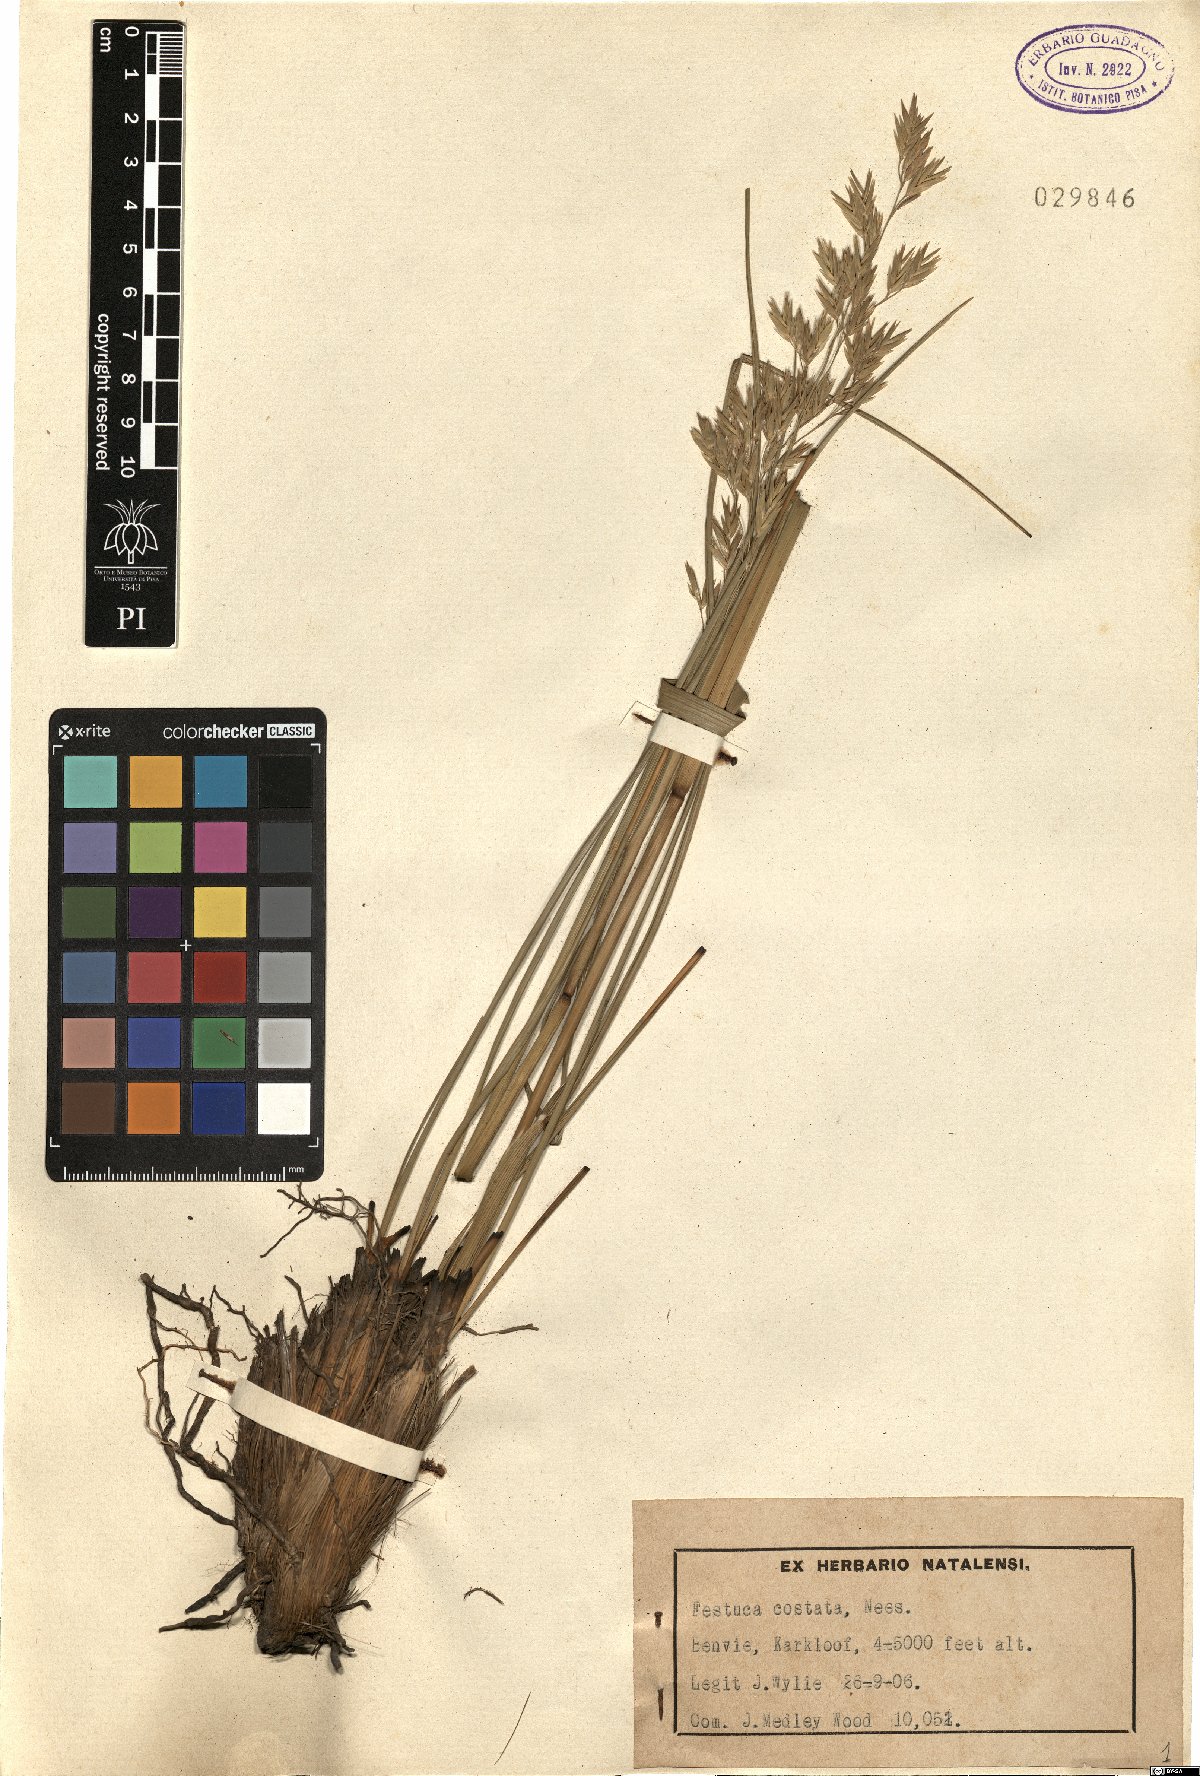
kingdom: Plantae
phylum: Tracheophyta
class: Liliopsida
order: Poales
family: Poaceae
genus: Festuca
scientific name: Festuca costata
